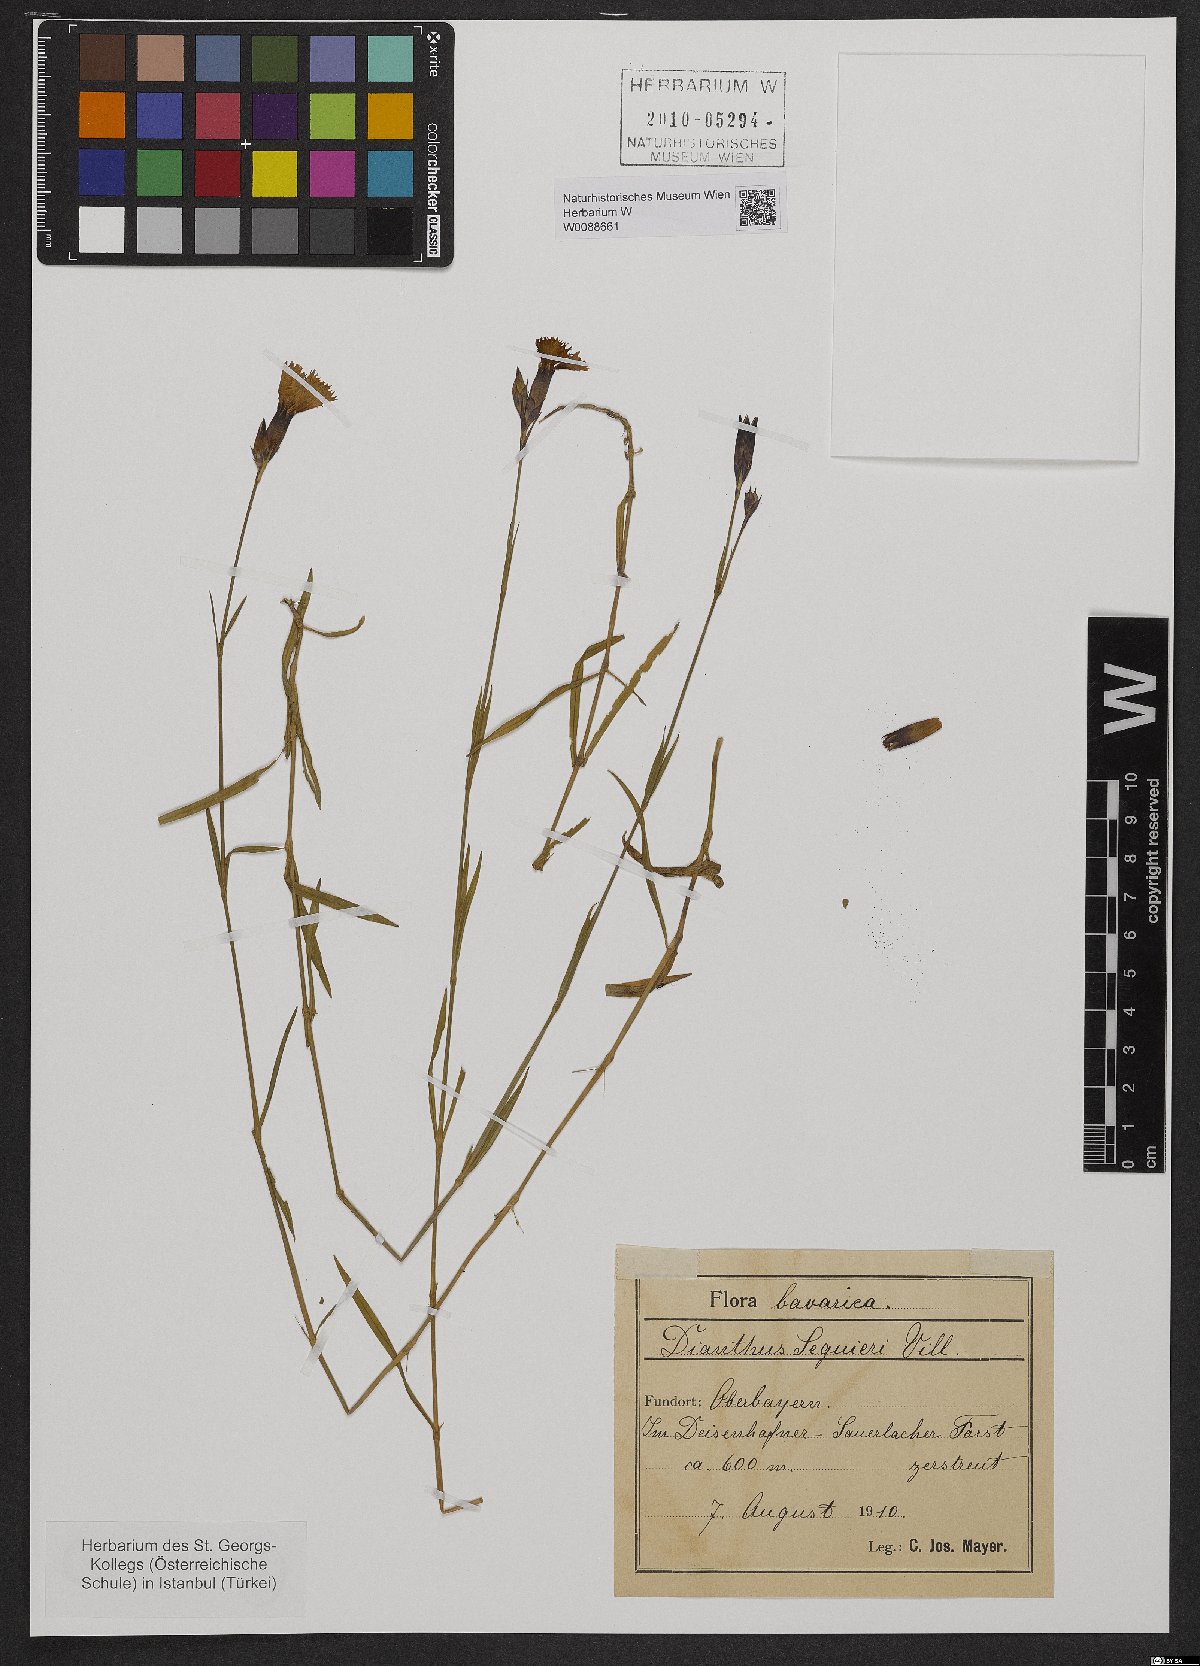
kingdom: Plantae
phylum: Tracheophyta
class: Magnoliopsida
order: Caryophyllales
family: Caryophyllaceae
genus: Dianthus
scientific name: Dianthus seguieri
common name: Ragged pink
